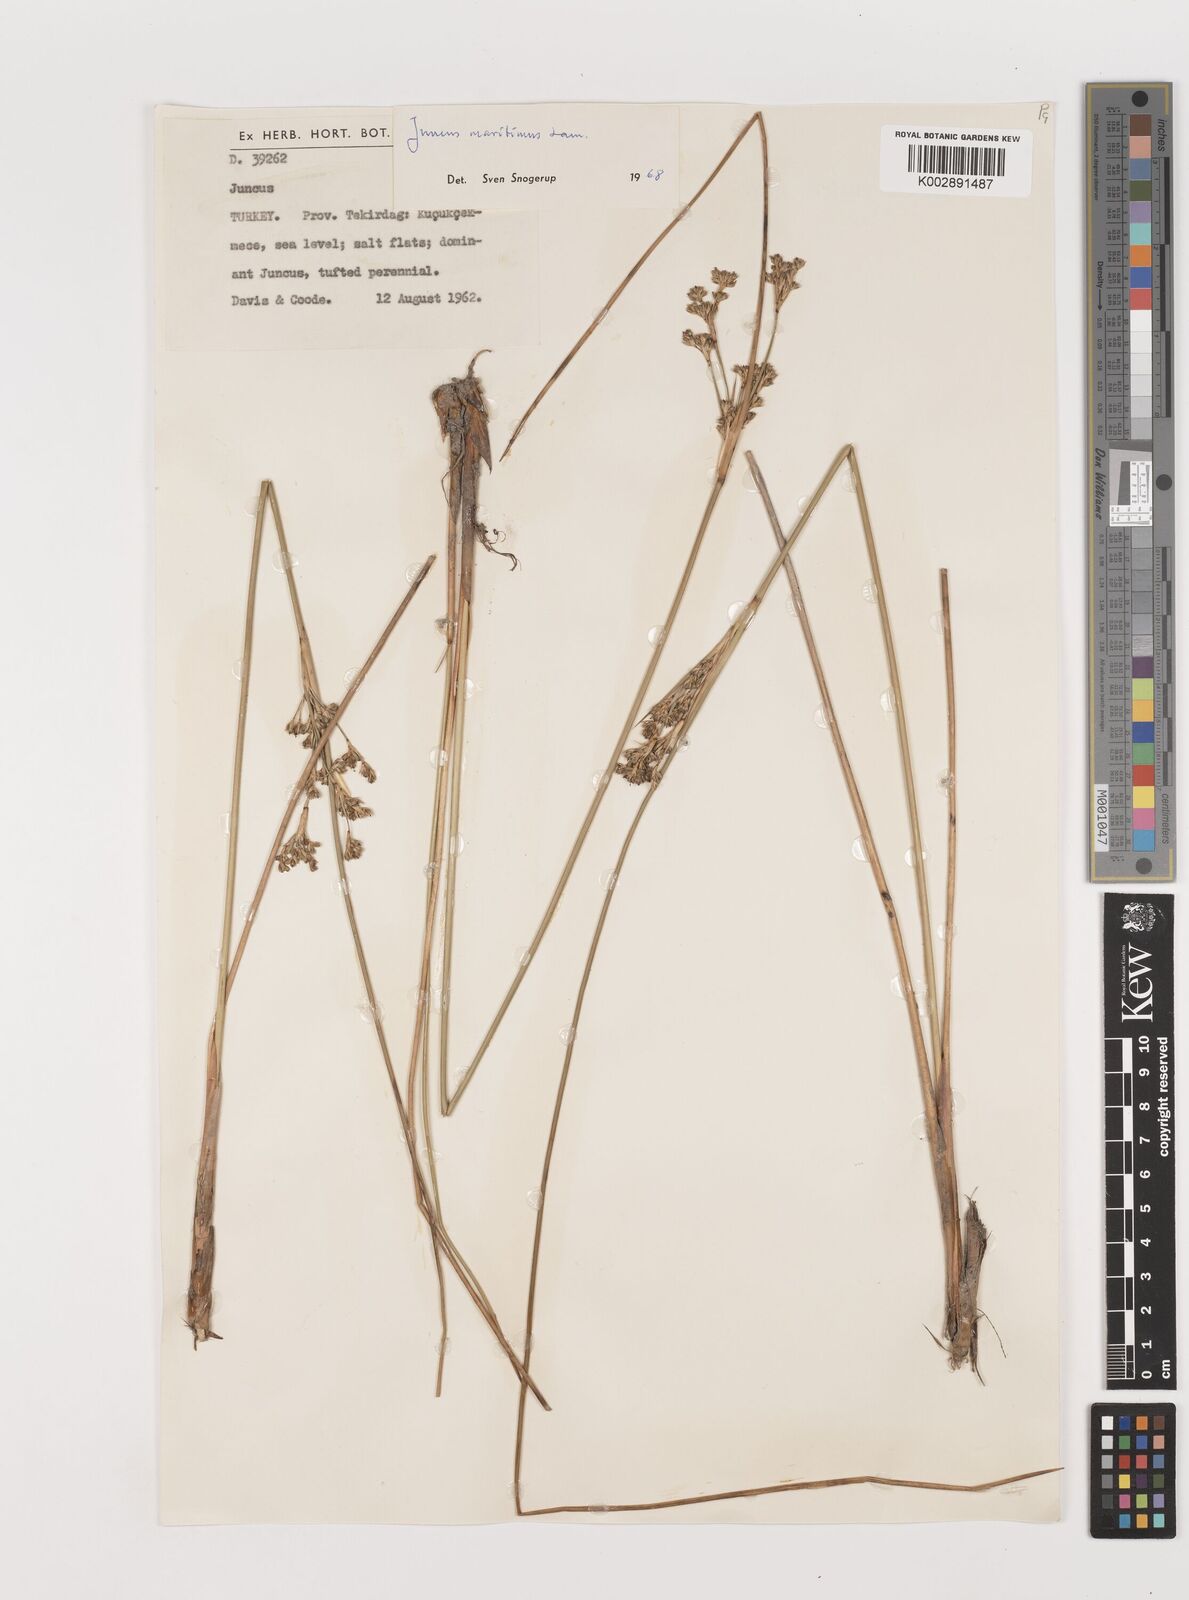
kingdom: Plantae
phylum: Tracheophyta
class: Liliopsida
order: Poales
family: Juncaceae
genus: Juncus
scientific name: Juncus maritimus
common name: Sea rush
